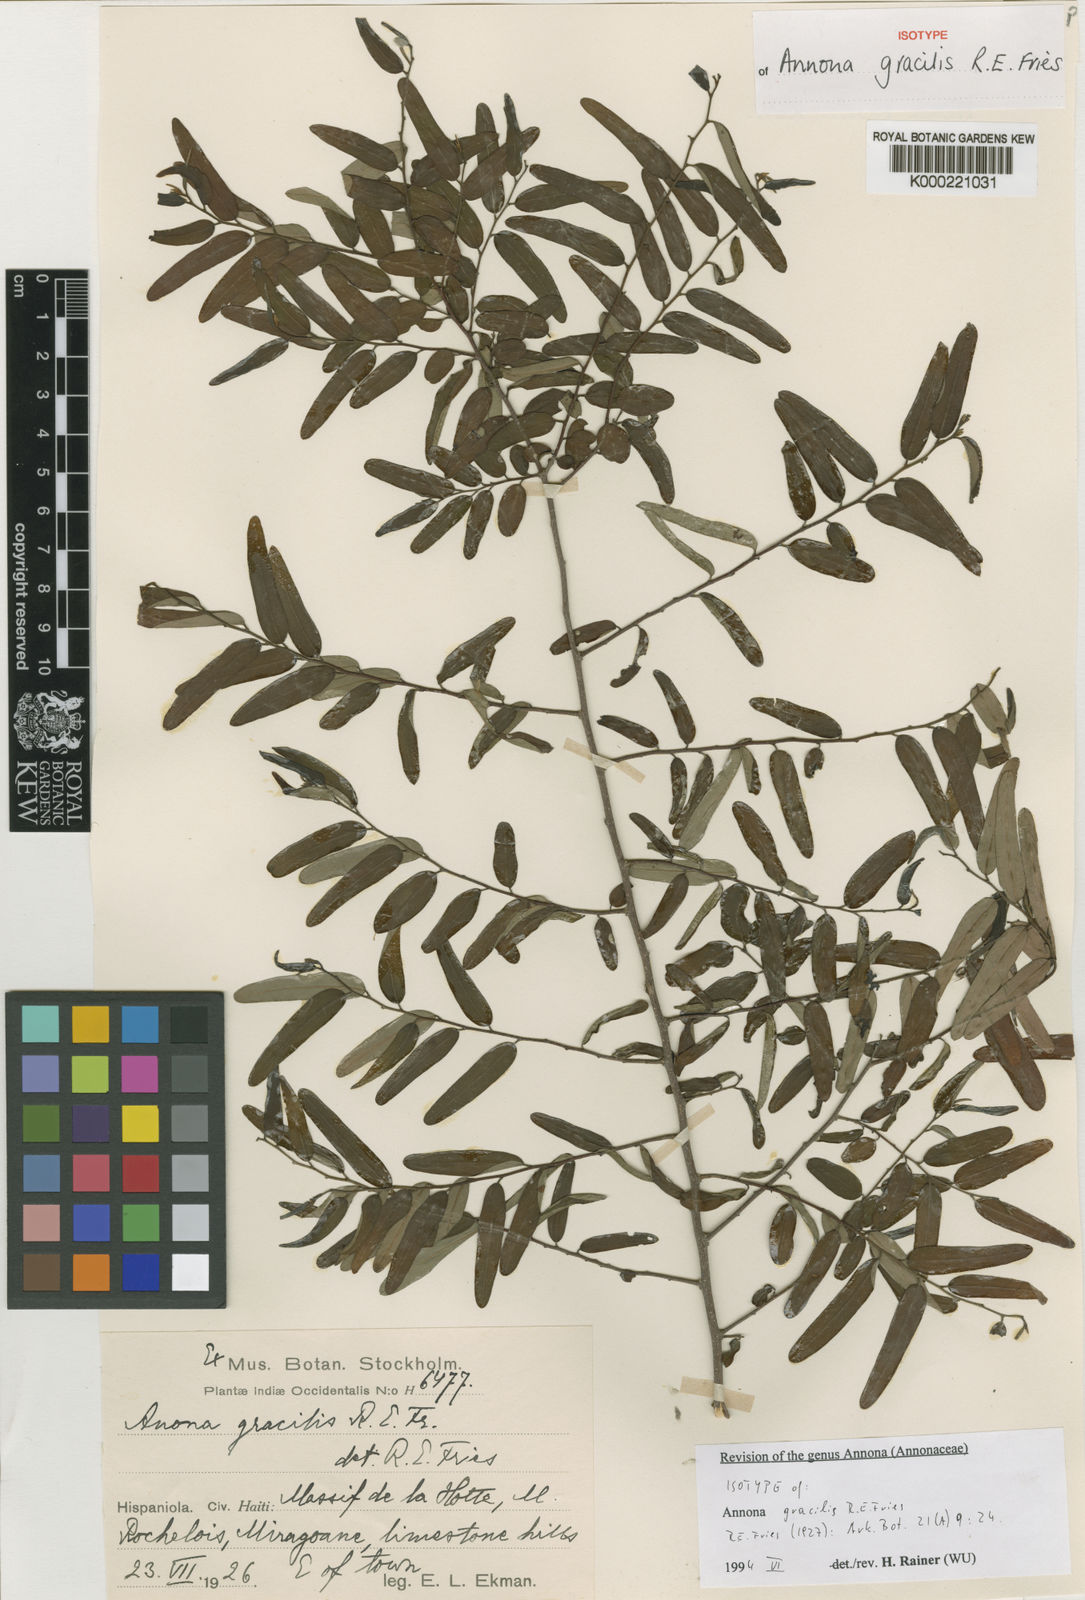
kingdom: Plantae
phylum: Tracheophyta
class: Magnoliopsida
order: Magnoliales
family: Annonaceae
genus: Annona
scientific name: Annona gracilis
